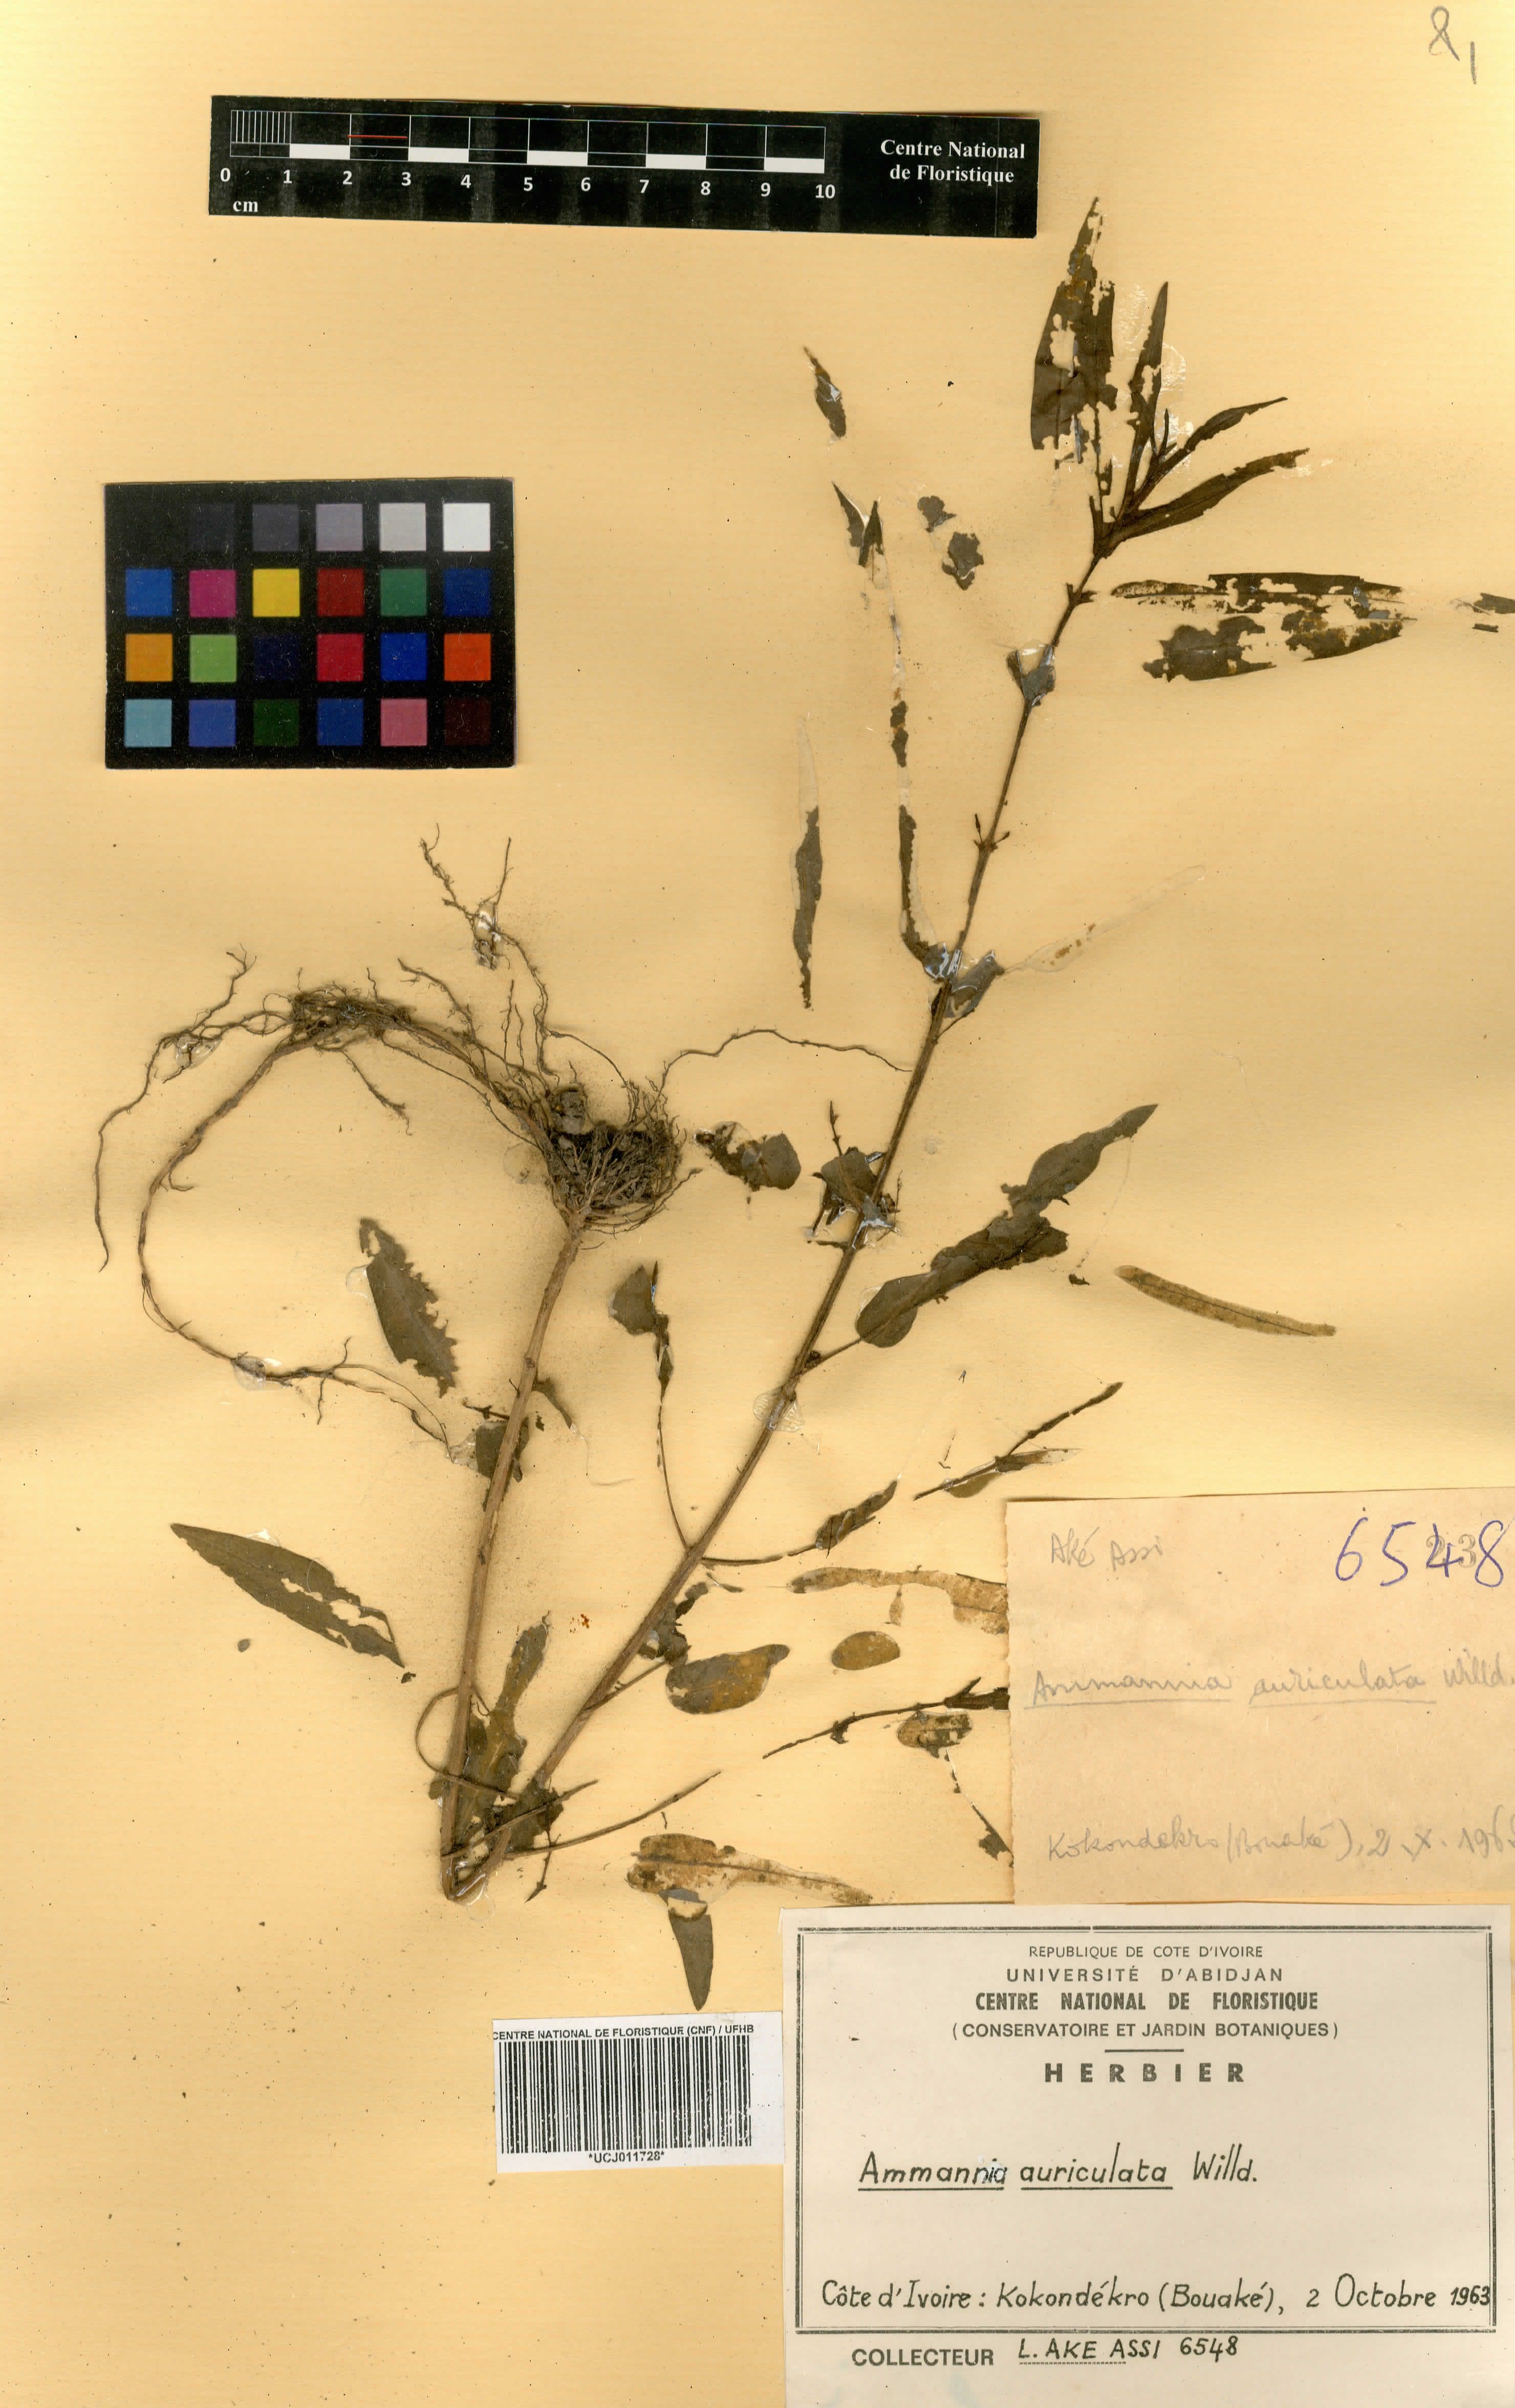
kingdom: Plantae
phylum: Tracheophyta
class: Magnoliopsida
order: Myrtales
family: Lythraceae
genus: Ammannia
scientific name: Ammannia auriculata
